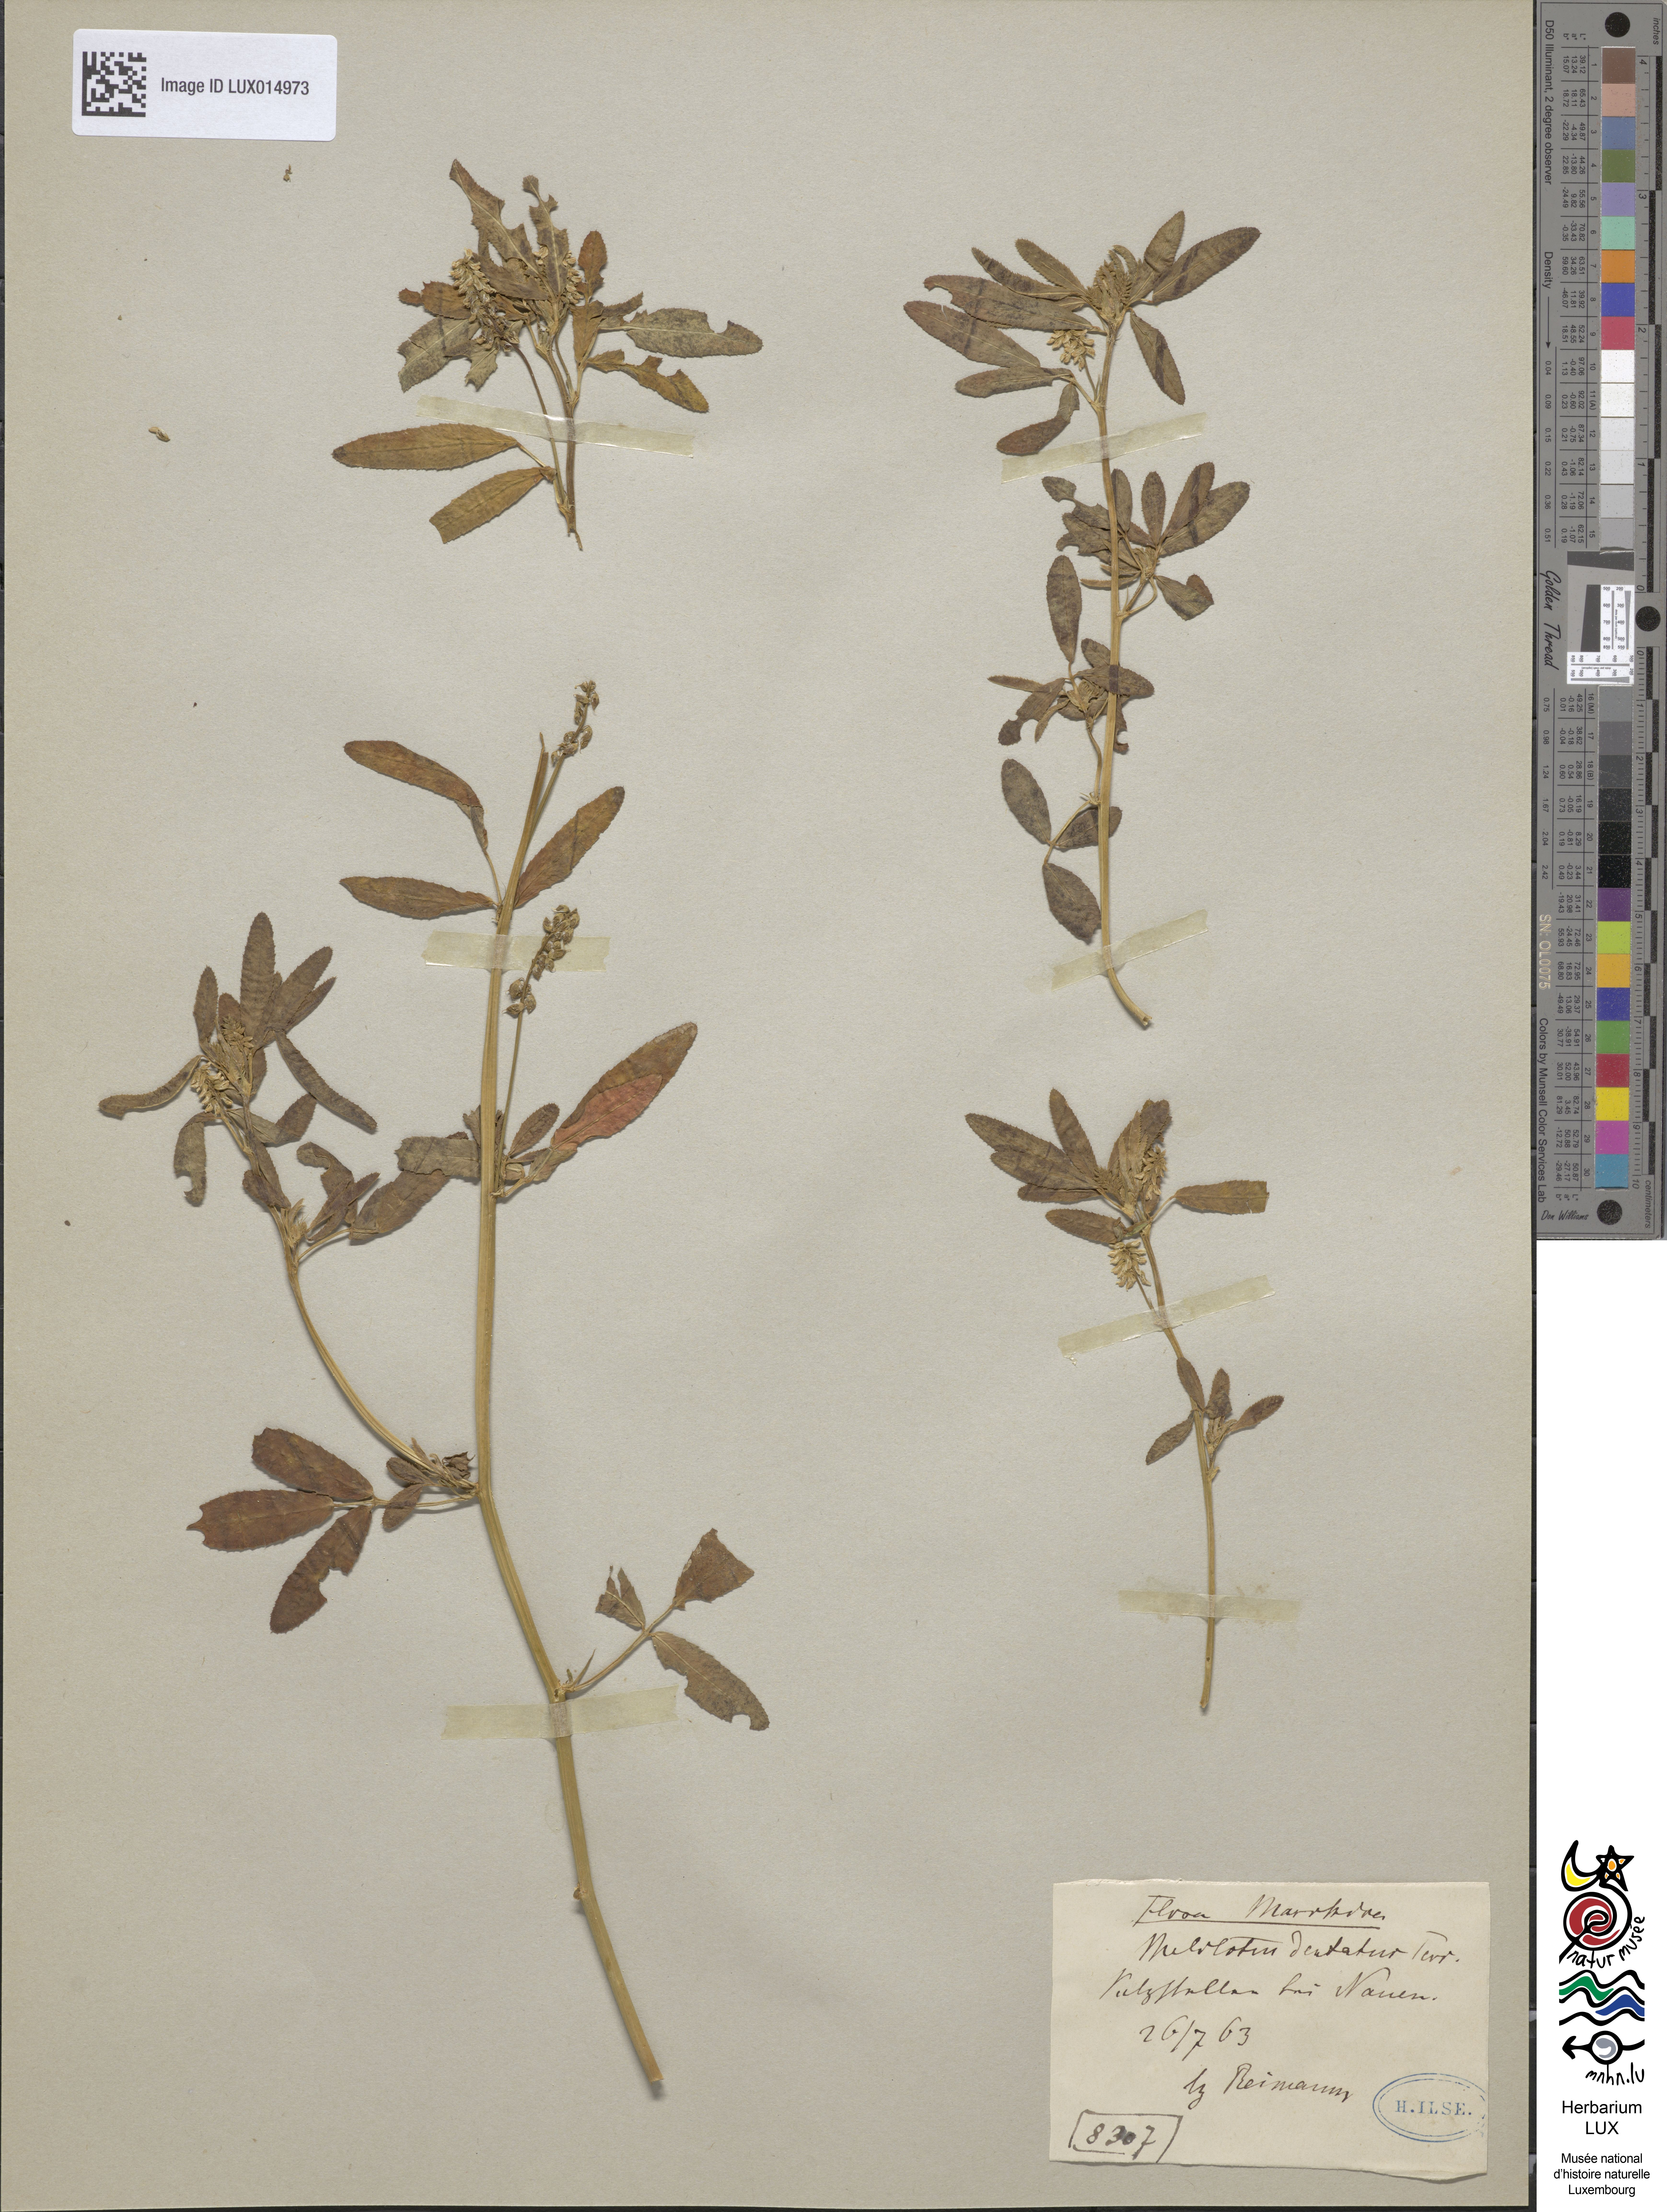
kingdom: Plantae
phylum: Tracheophyta
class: Magnoliopsida
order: Fabales
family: Fabaceae
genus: Melilotus
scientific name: Melilotus dentatus
